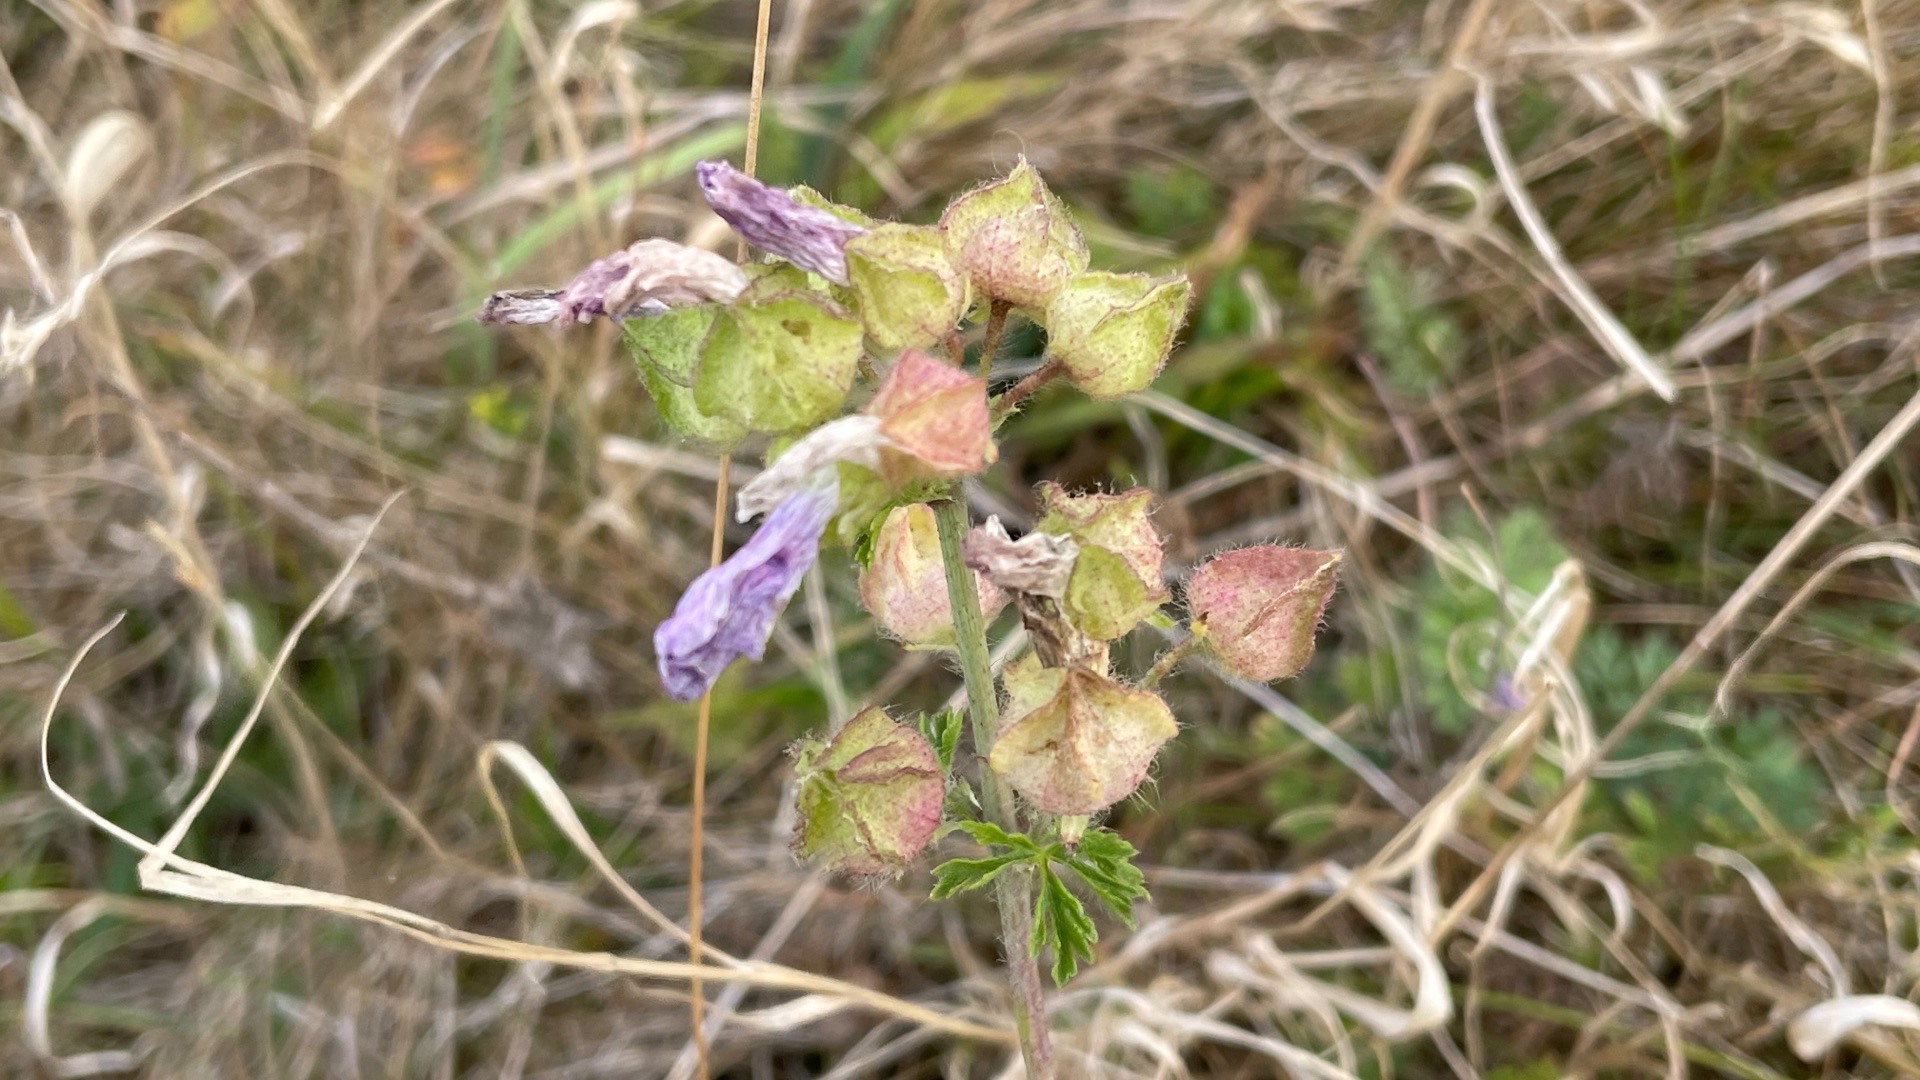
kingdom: Plantae
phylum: Tracheophyta
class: Magnoliopsida
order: Malvales
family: Malvaceae
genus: Malva
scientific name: Malva moschata
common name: Moskus-katost
